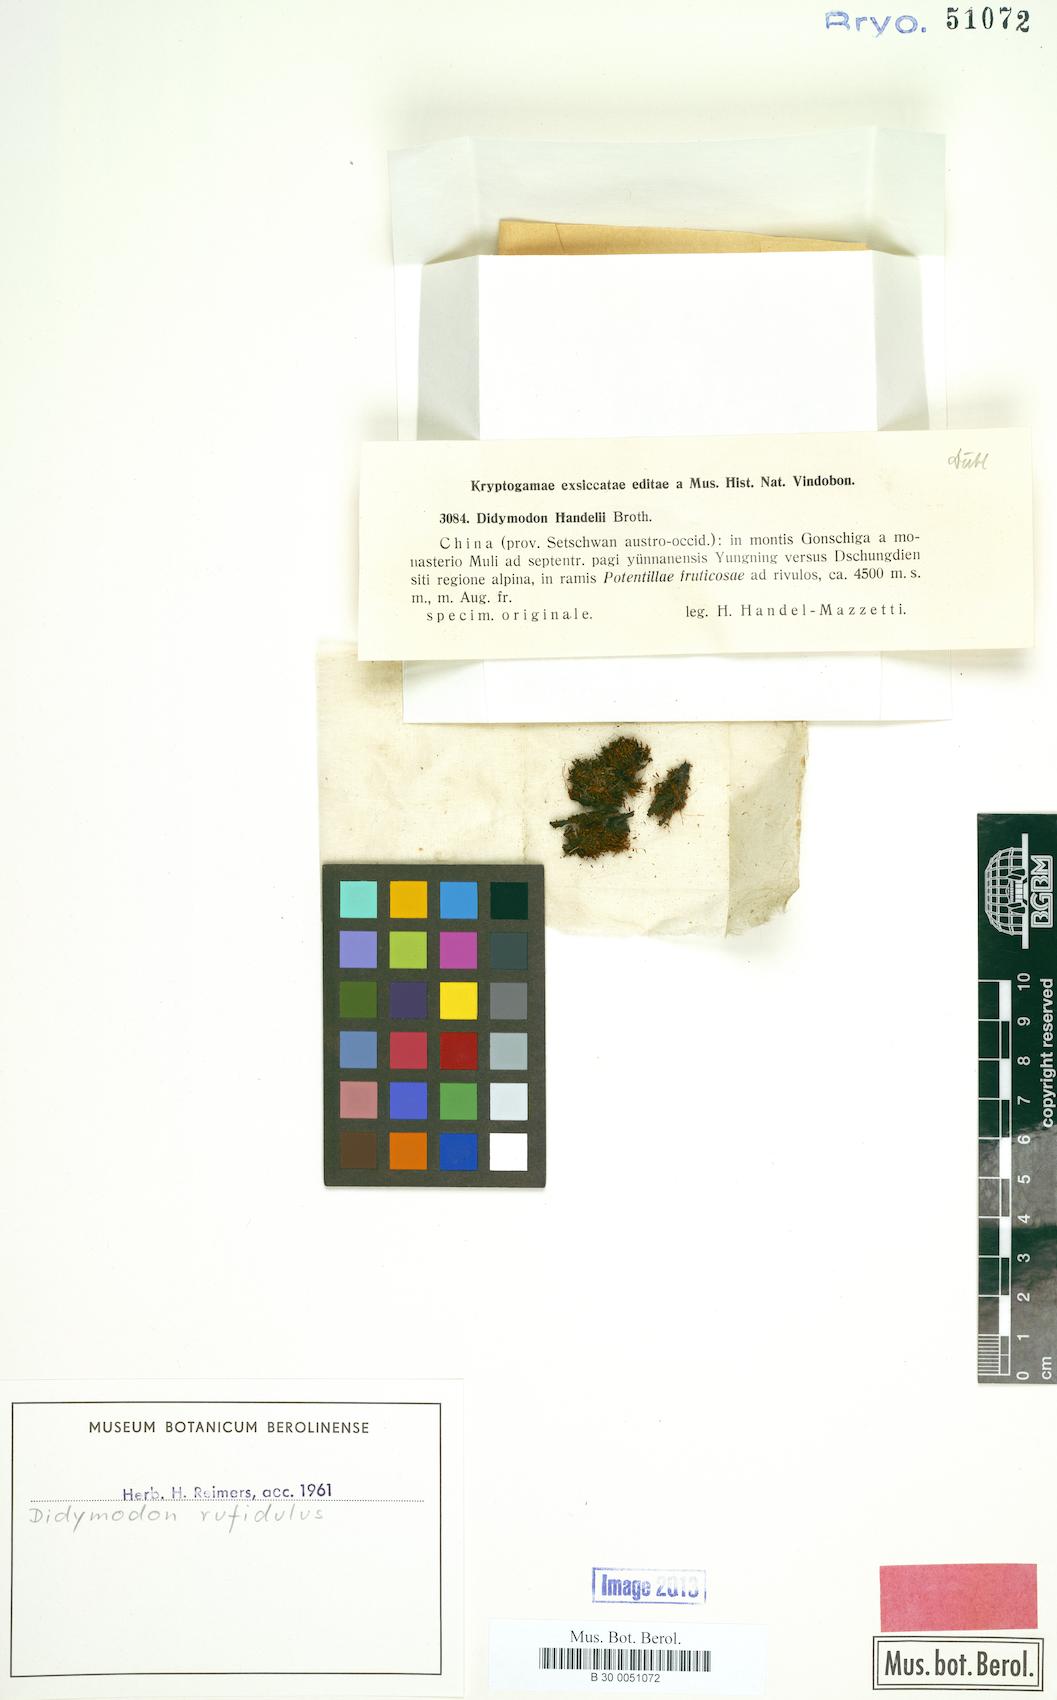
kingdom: Plantae
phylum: Bryophyta
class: Bryopsida
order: Pottiales
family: Pottiaceae
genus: Husnotiella
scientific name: Husnotiella rufidula
